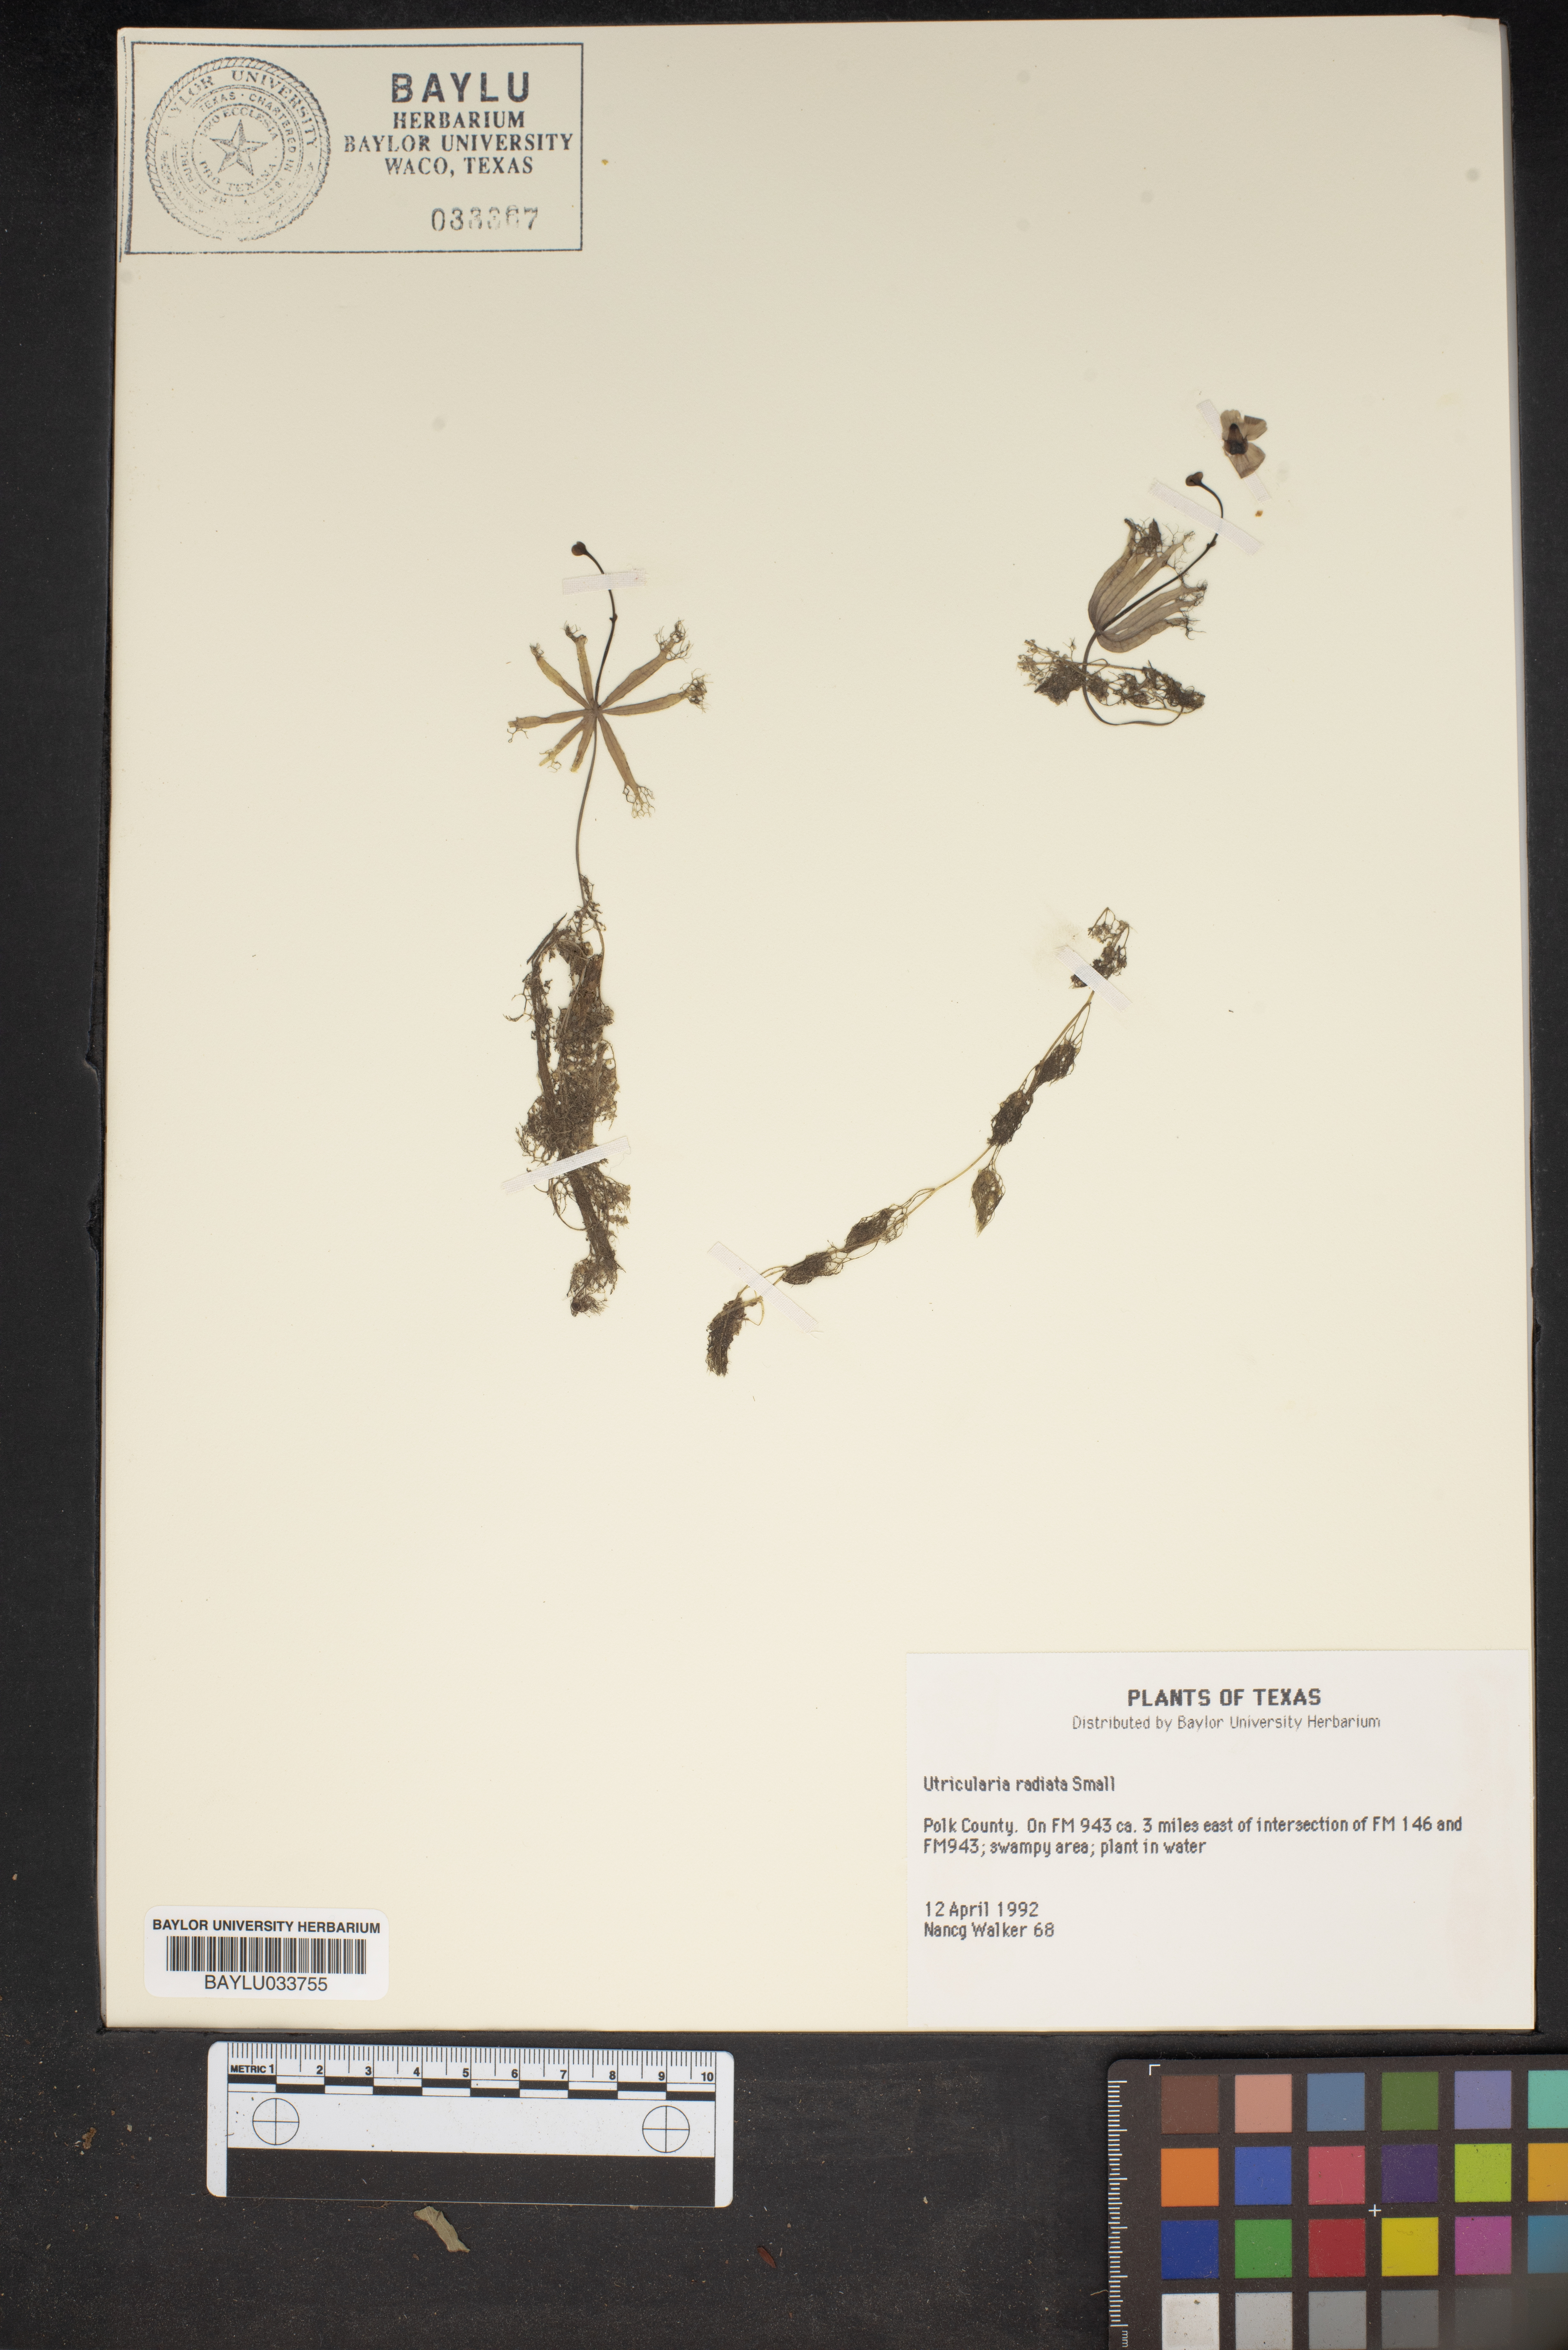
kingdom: Plantae
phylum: Tracheophyta
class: Magnoliopsida
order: Lamiales
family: Lentibulariaceae
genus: Utricularia
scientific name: Utricularia radiata
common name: Floating bladderwort
